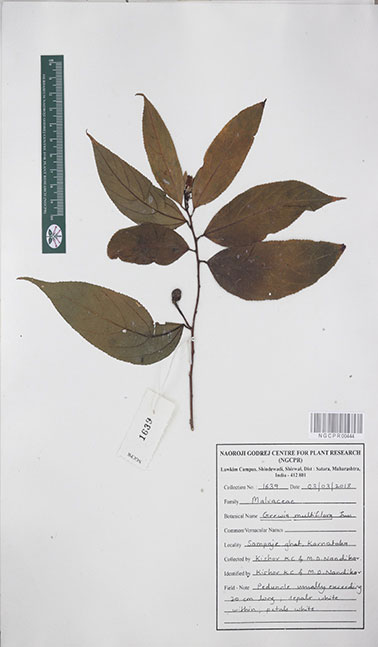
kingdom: Plantae
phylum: Tracheophyta
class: Magnoliopsida
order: Malvales
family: Malvaceae
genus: Grewia
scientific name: Grewia multiflora
